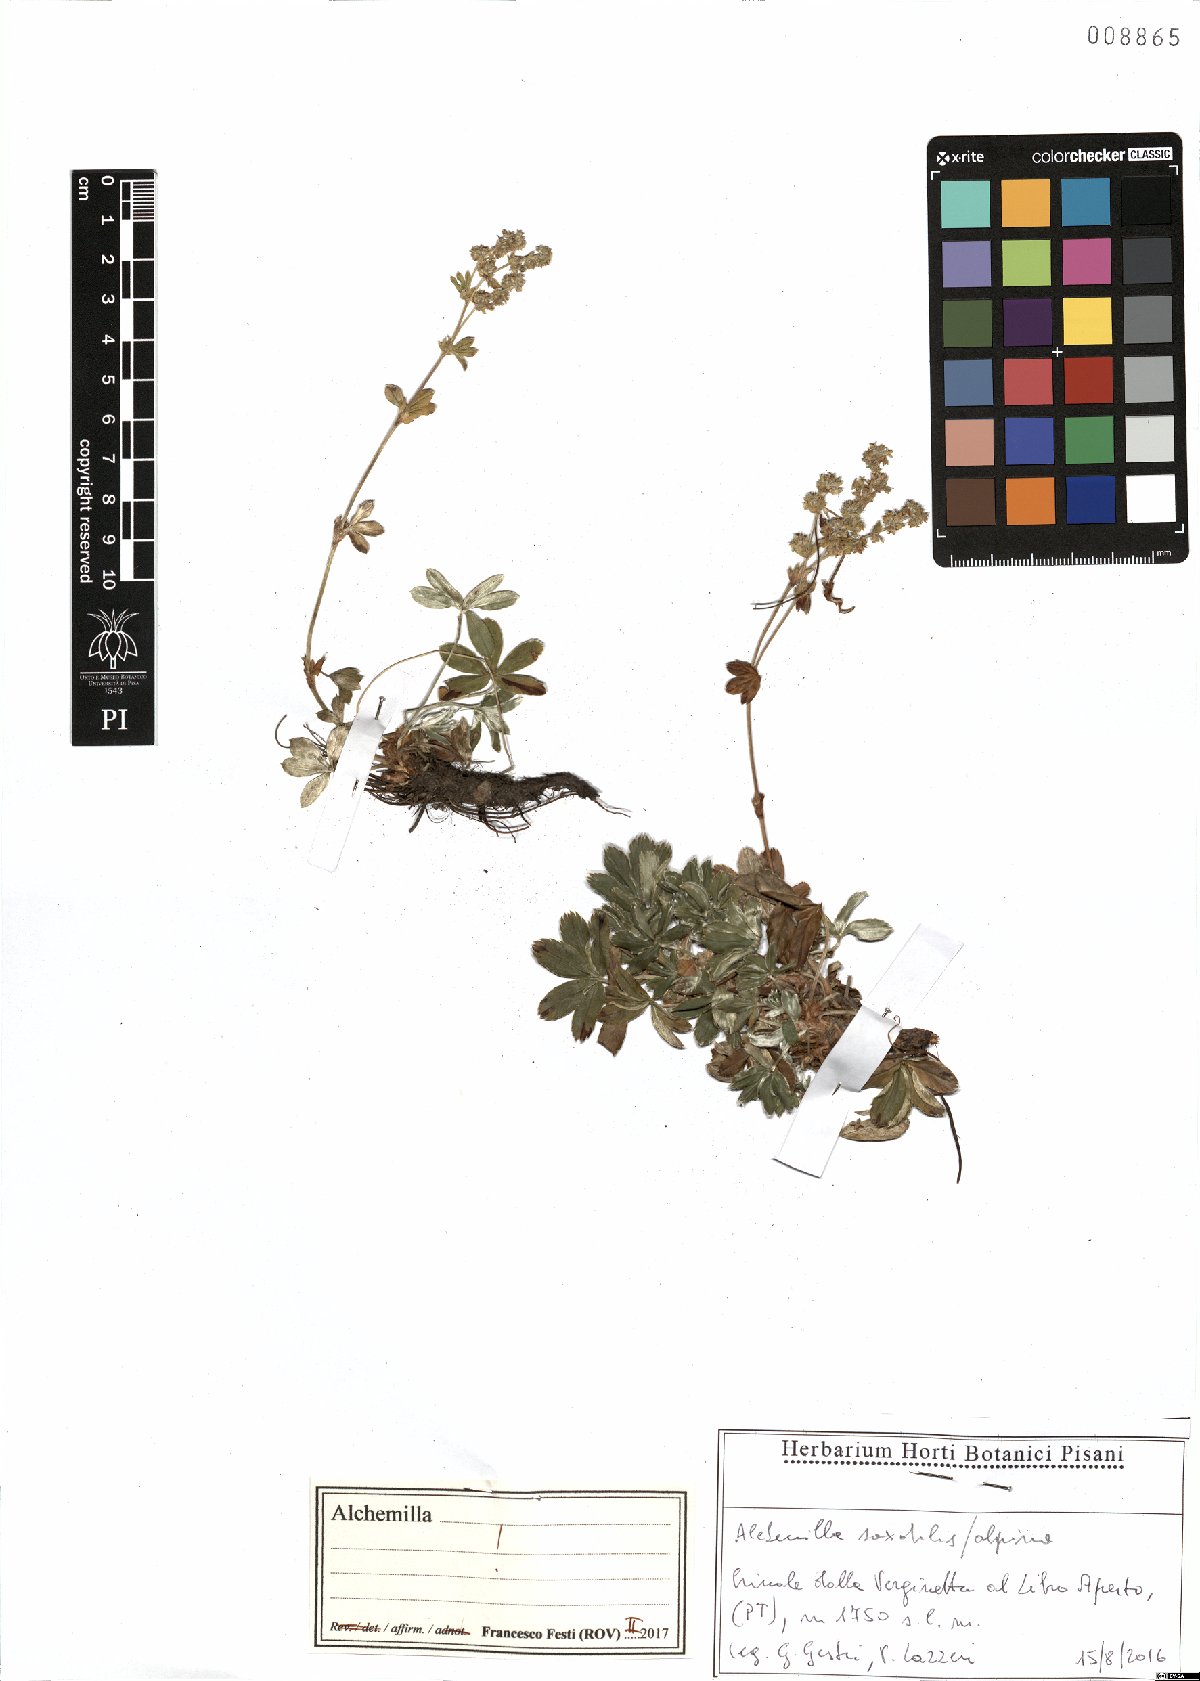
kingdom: Plantae
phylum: Tracheophyta
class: Magnoliopsida
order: Rosales
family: Rosaceae
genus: Alchemilla
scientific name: Alchemilla saxatilis
